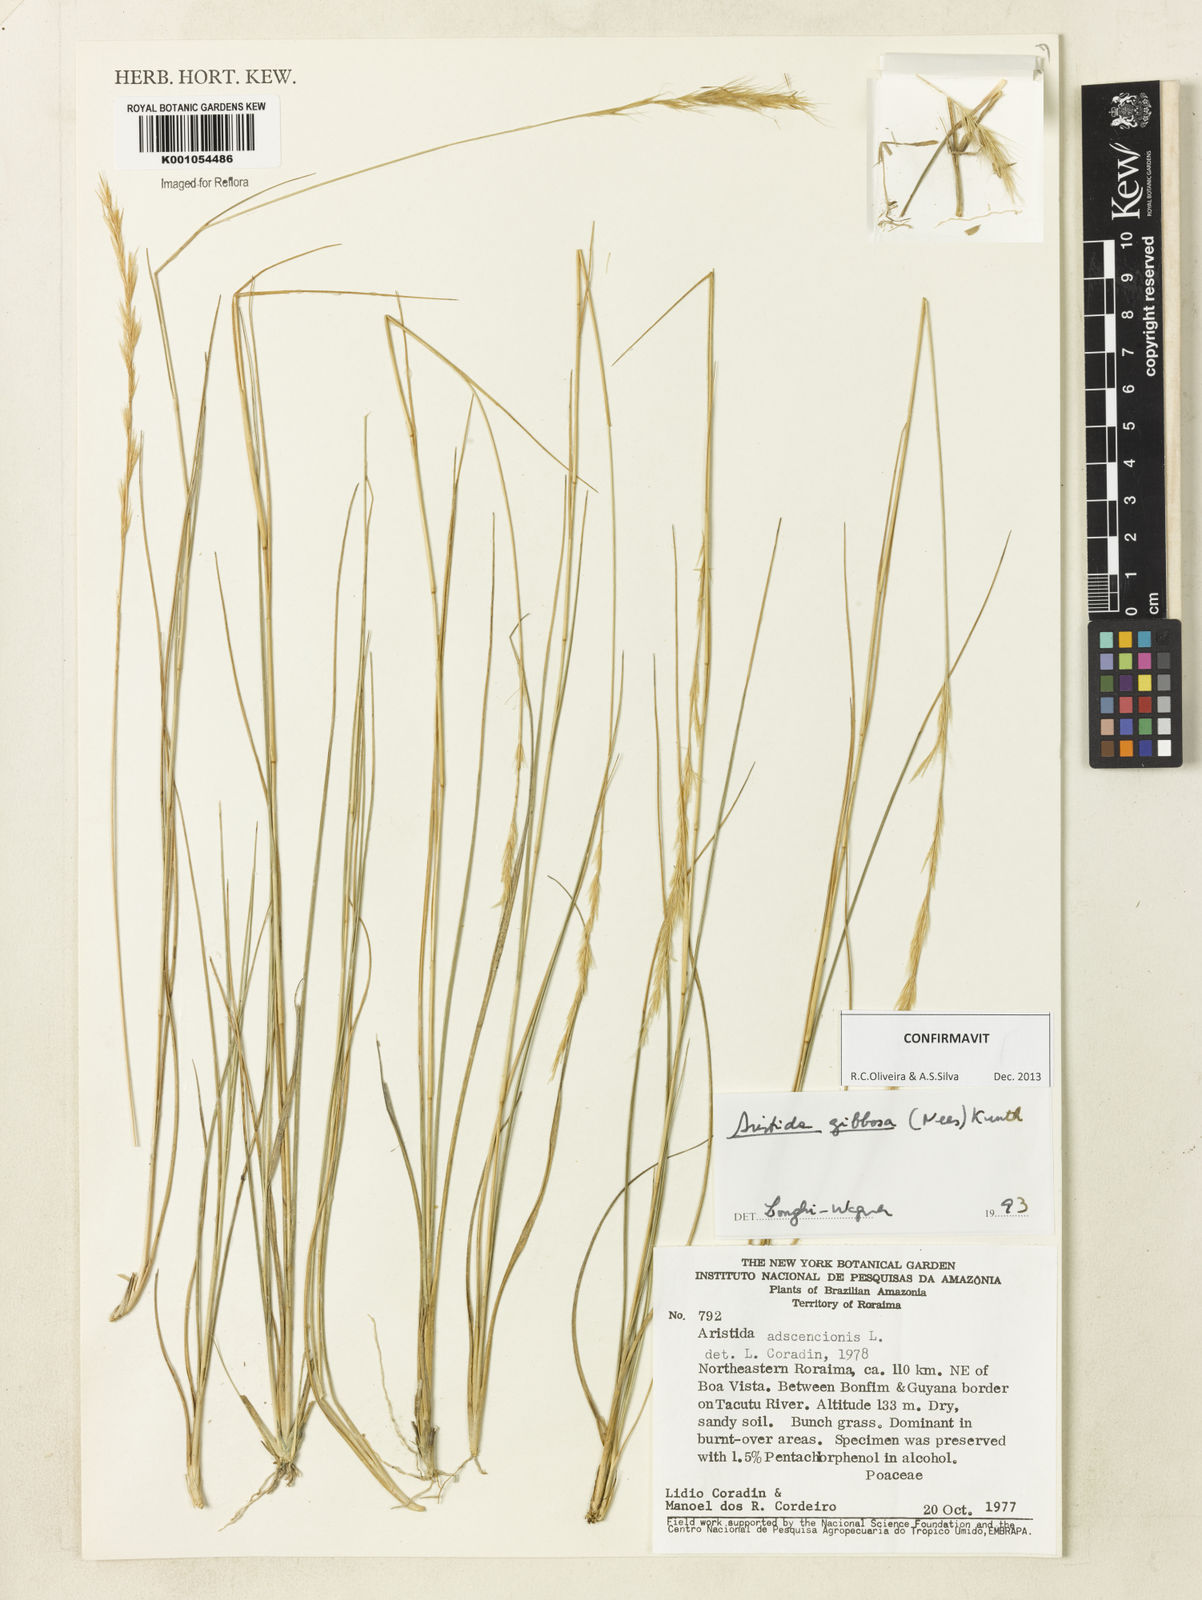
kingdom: Plantae
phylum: Tracheophyta
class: Liliopsida
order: Poales
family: Poaceae
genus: Aristida
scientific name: Aristida gibbosa
